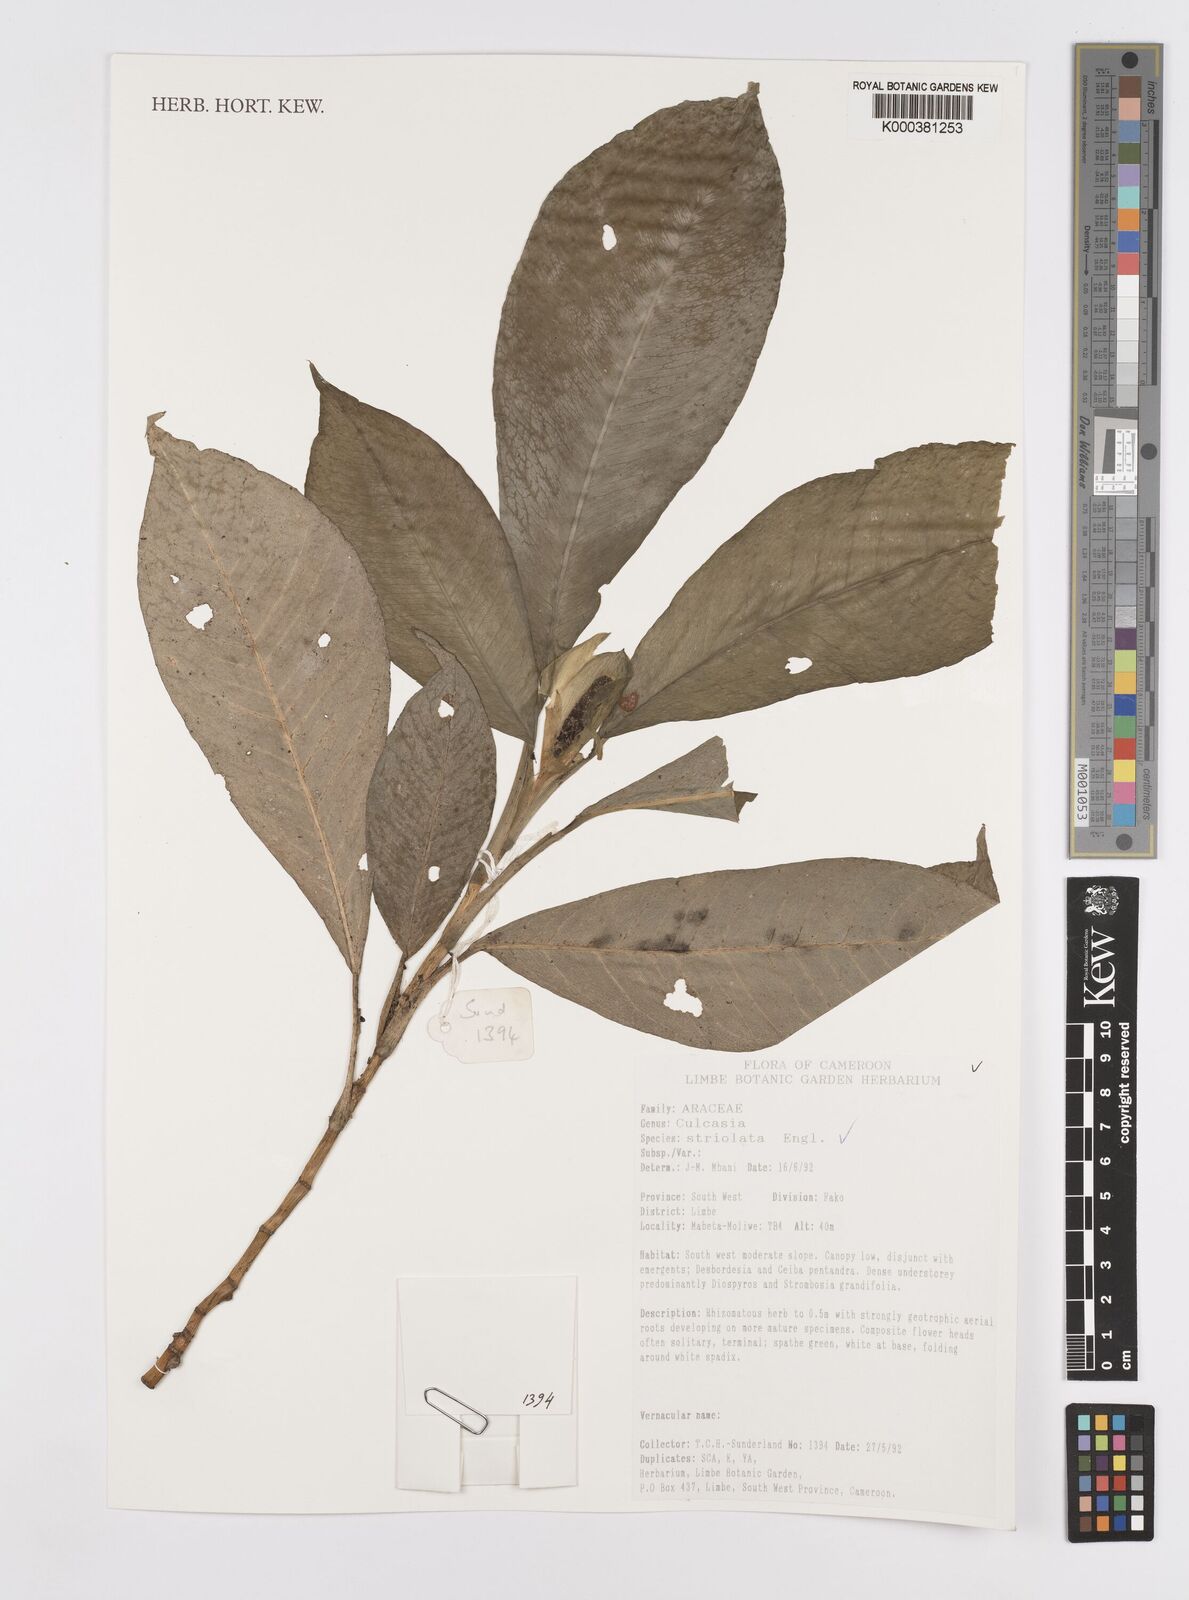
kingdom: Plantae
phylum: Tracheophyta
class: Liliopsida
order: Alismatales
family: Araceae
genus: Culcasia
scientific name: Culcasia striolata
